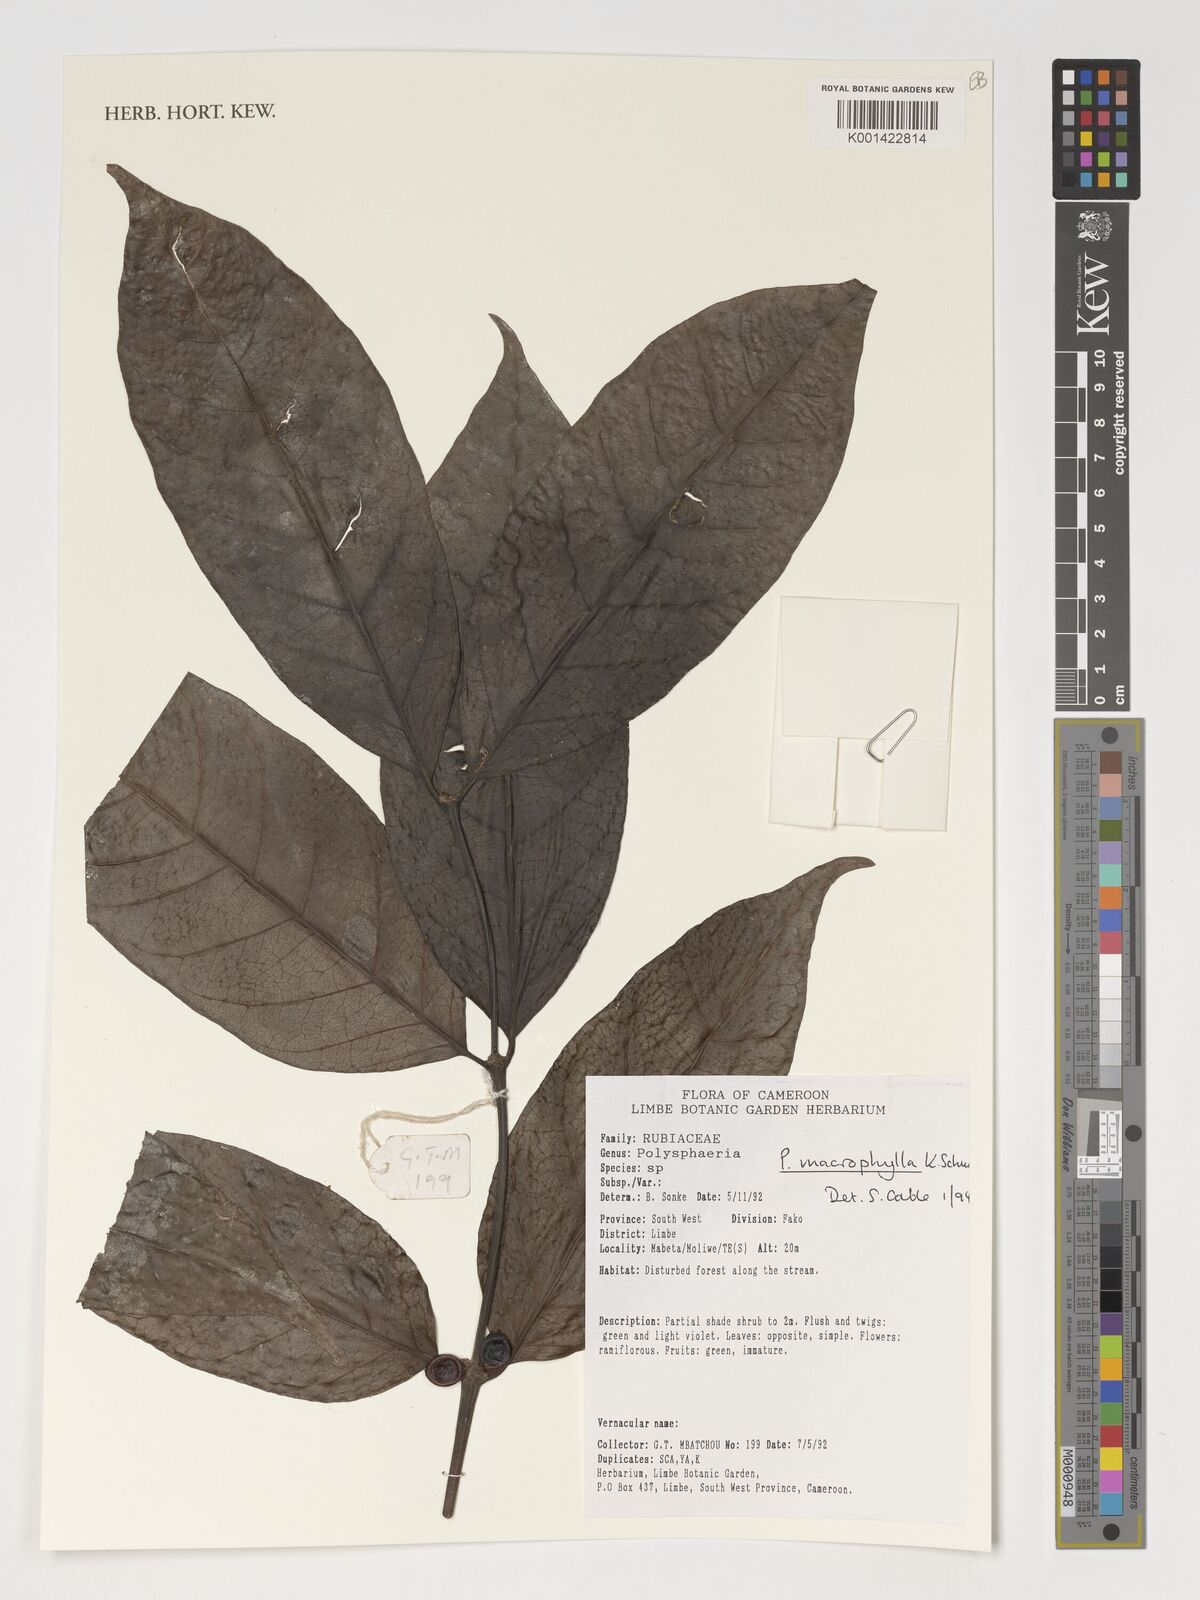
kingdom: Plantae
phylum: Tracheophyta
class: Magnoliopsida
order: Gentianales
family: Rubiaceae
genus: Polysphaeria
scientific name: Polysphaeria macrophylla
